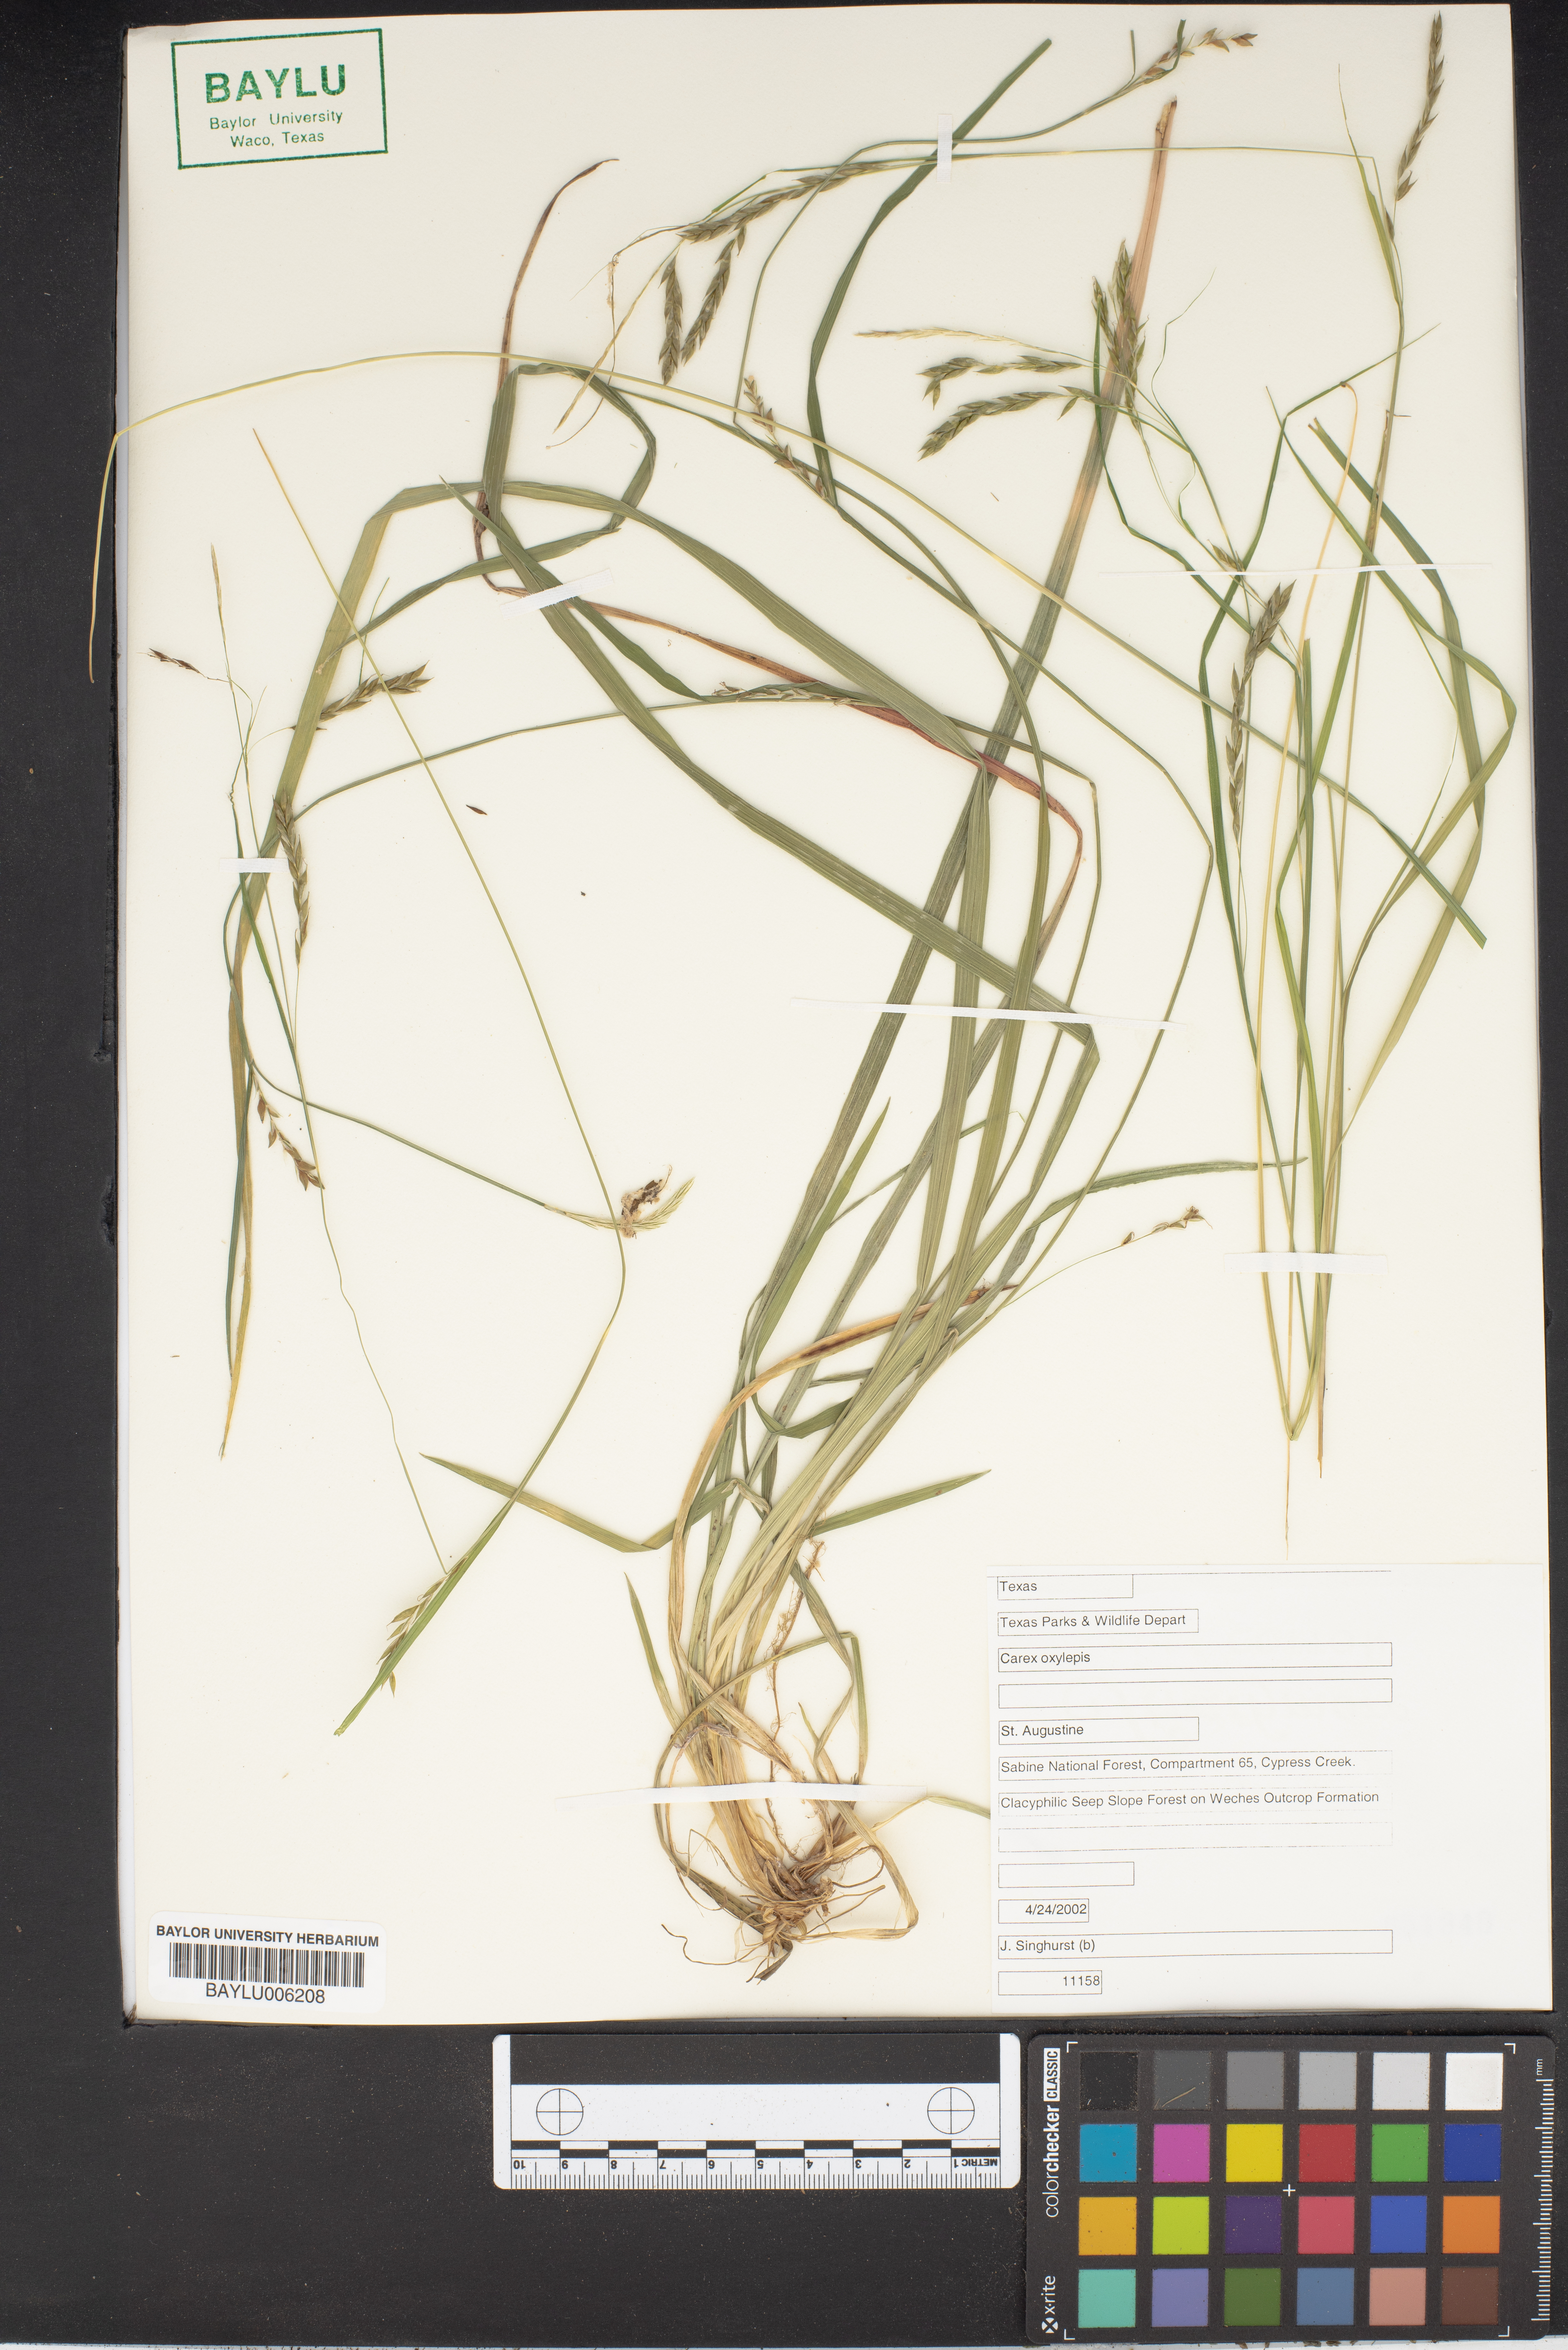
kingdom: Plantae
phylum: Tracheophyta
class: Liliopsida
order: Poales
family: Cyperaceae
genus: Carex
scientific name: Carex oxylepis
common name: Sharpscale sedge
